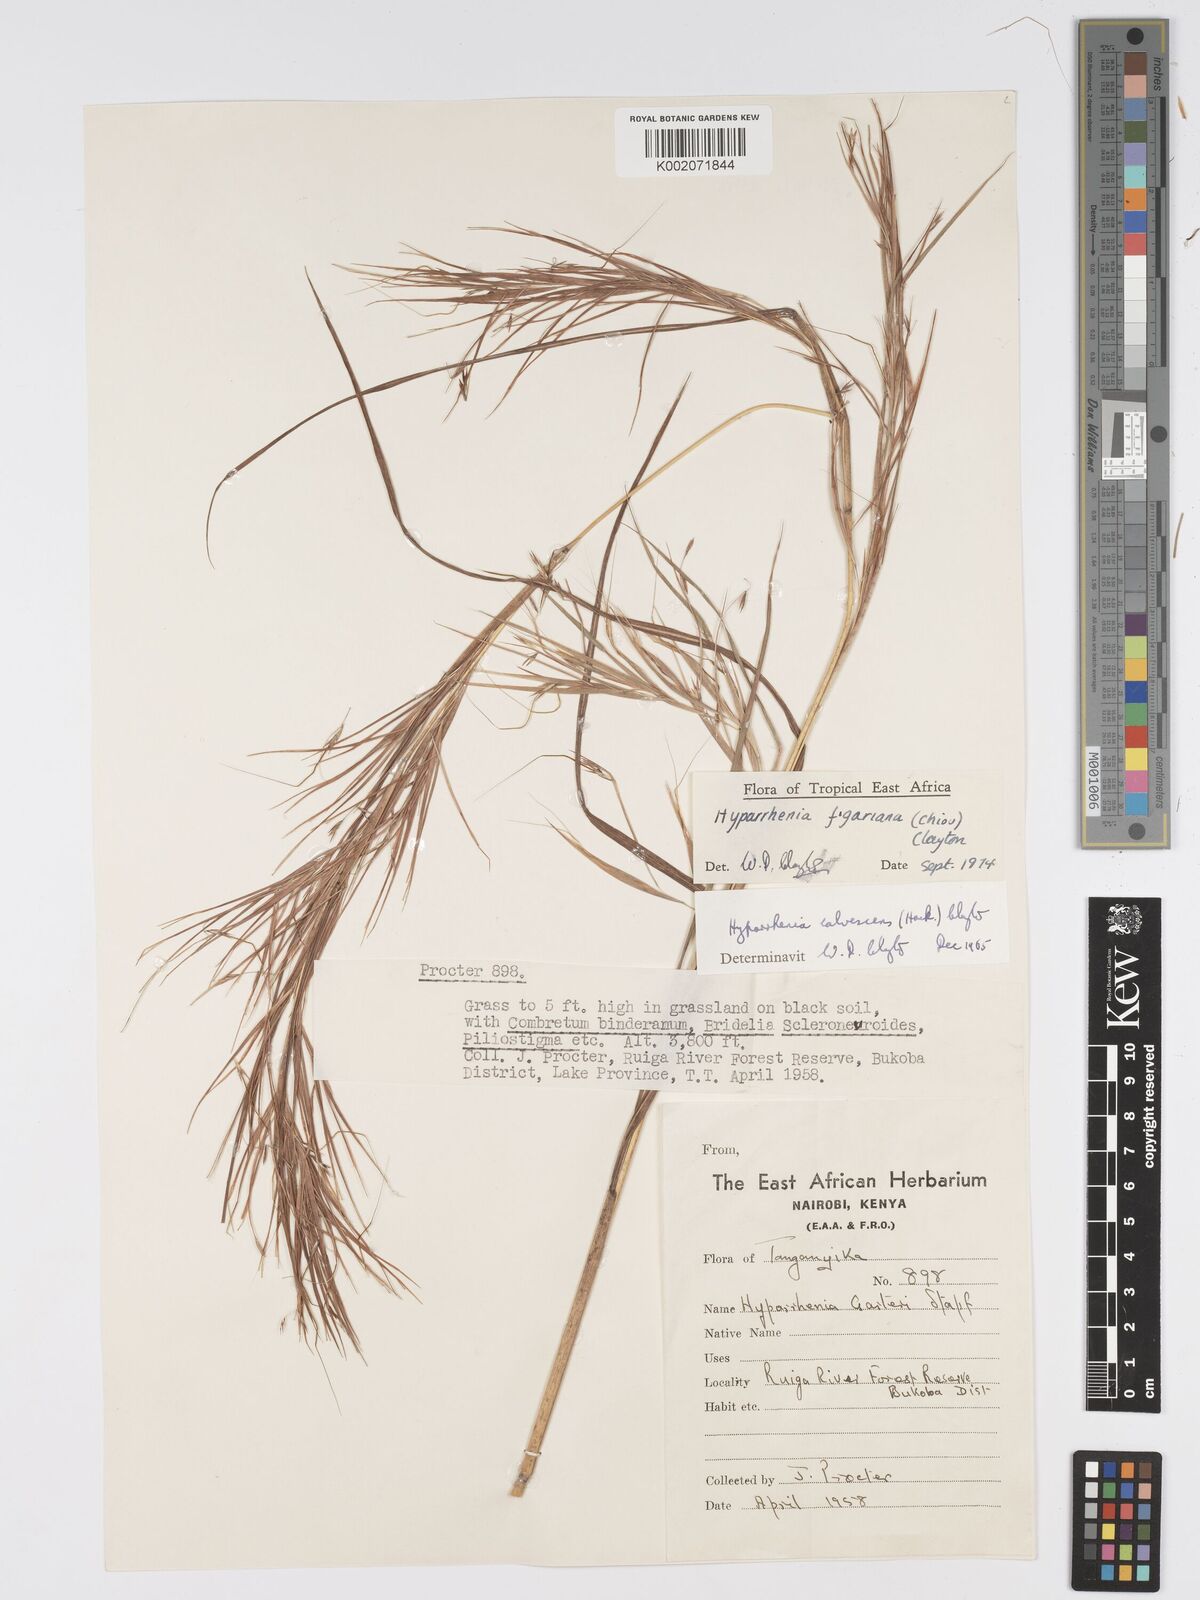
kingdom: Plantae
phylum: Tracheophyta
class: Liliopsida
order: Poales
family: Poaceae
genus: Hyparrhenia
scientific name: Hyparrhenia figariana
